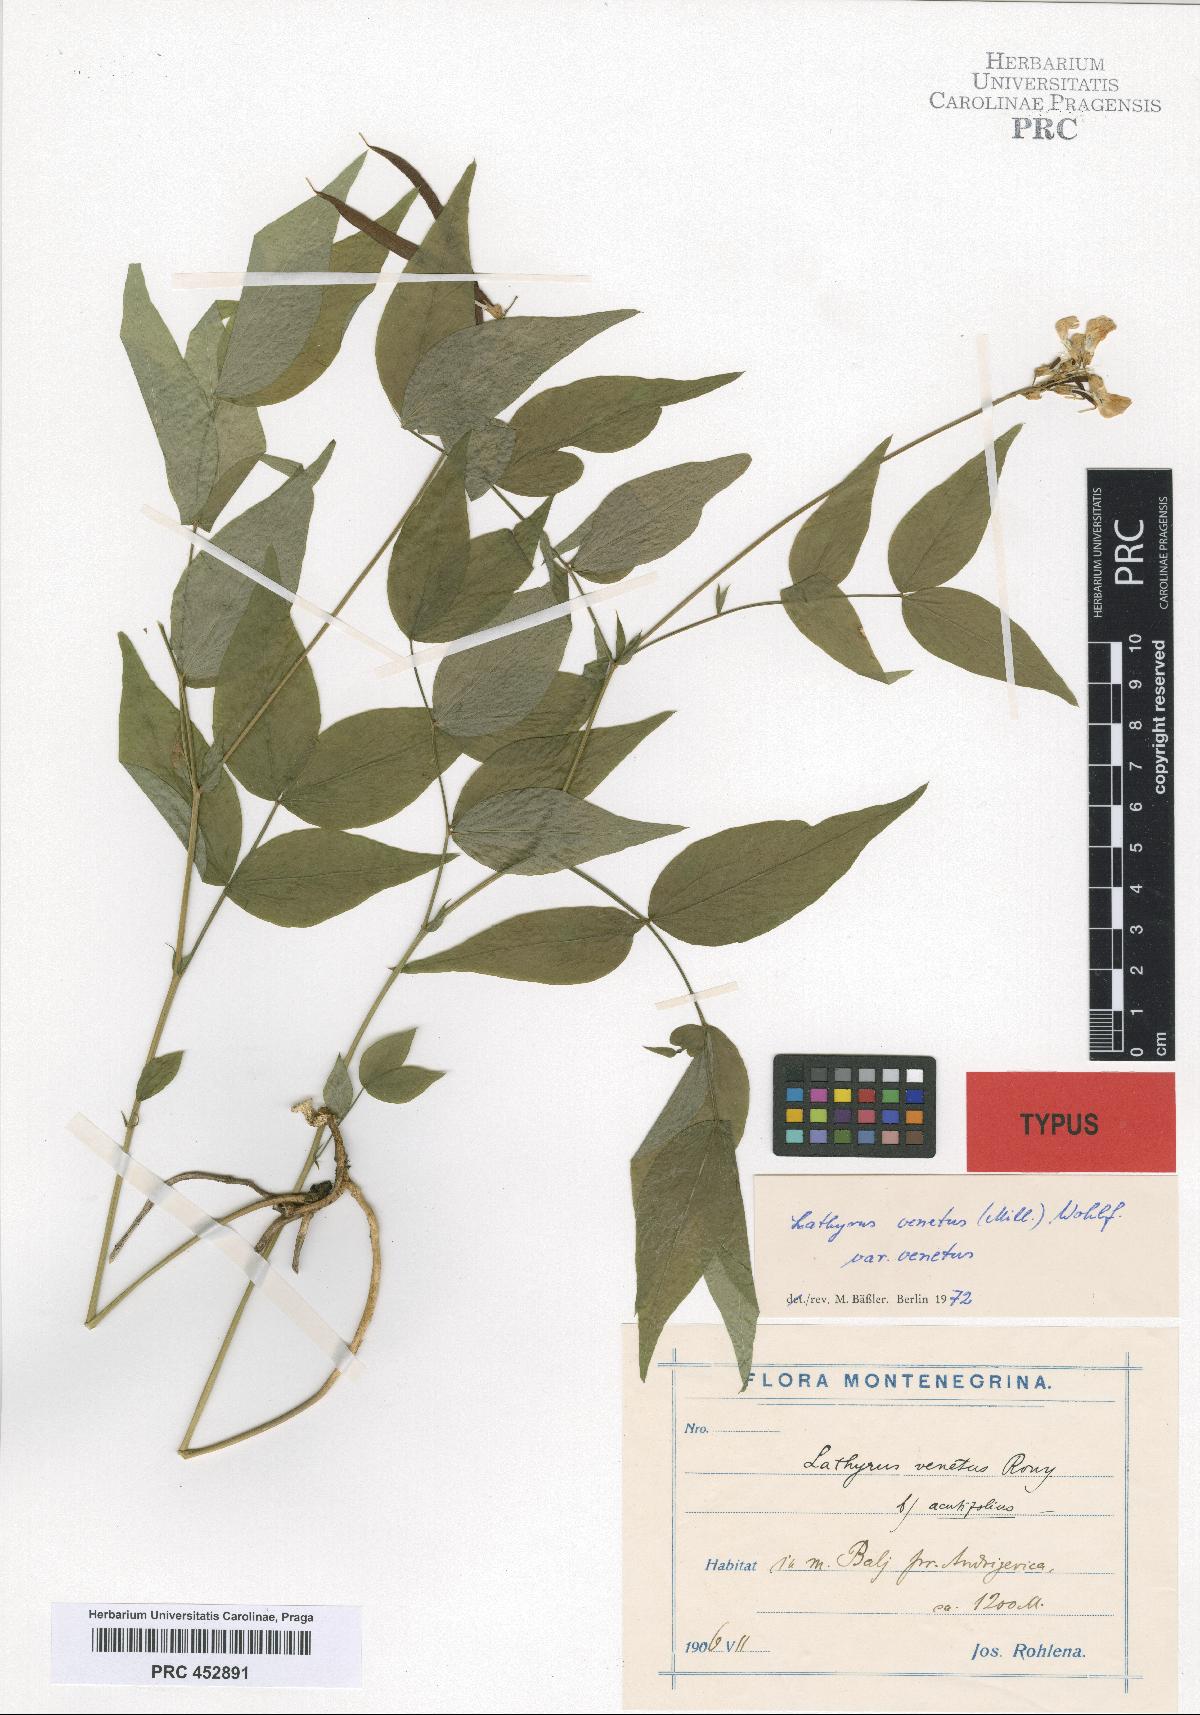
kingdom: Plantae
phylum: Tracheophyta
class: Magnoliopsida
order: Fabales
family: Fabaceae
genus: Lathyrus
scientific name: Lathyrus venetus
